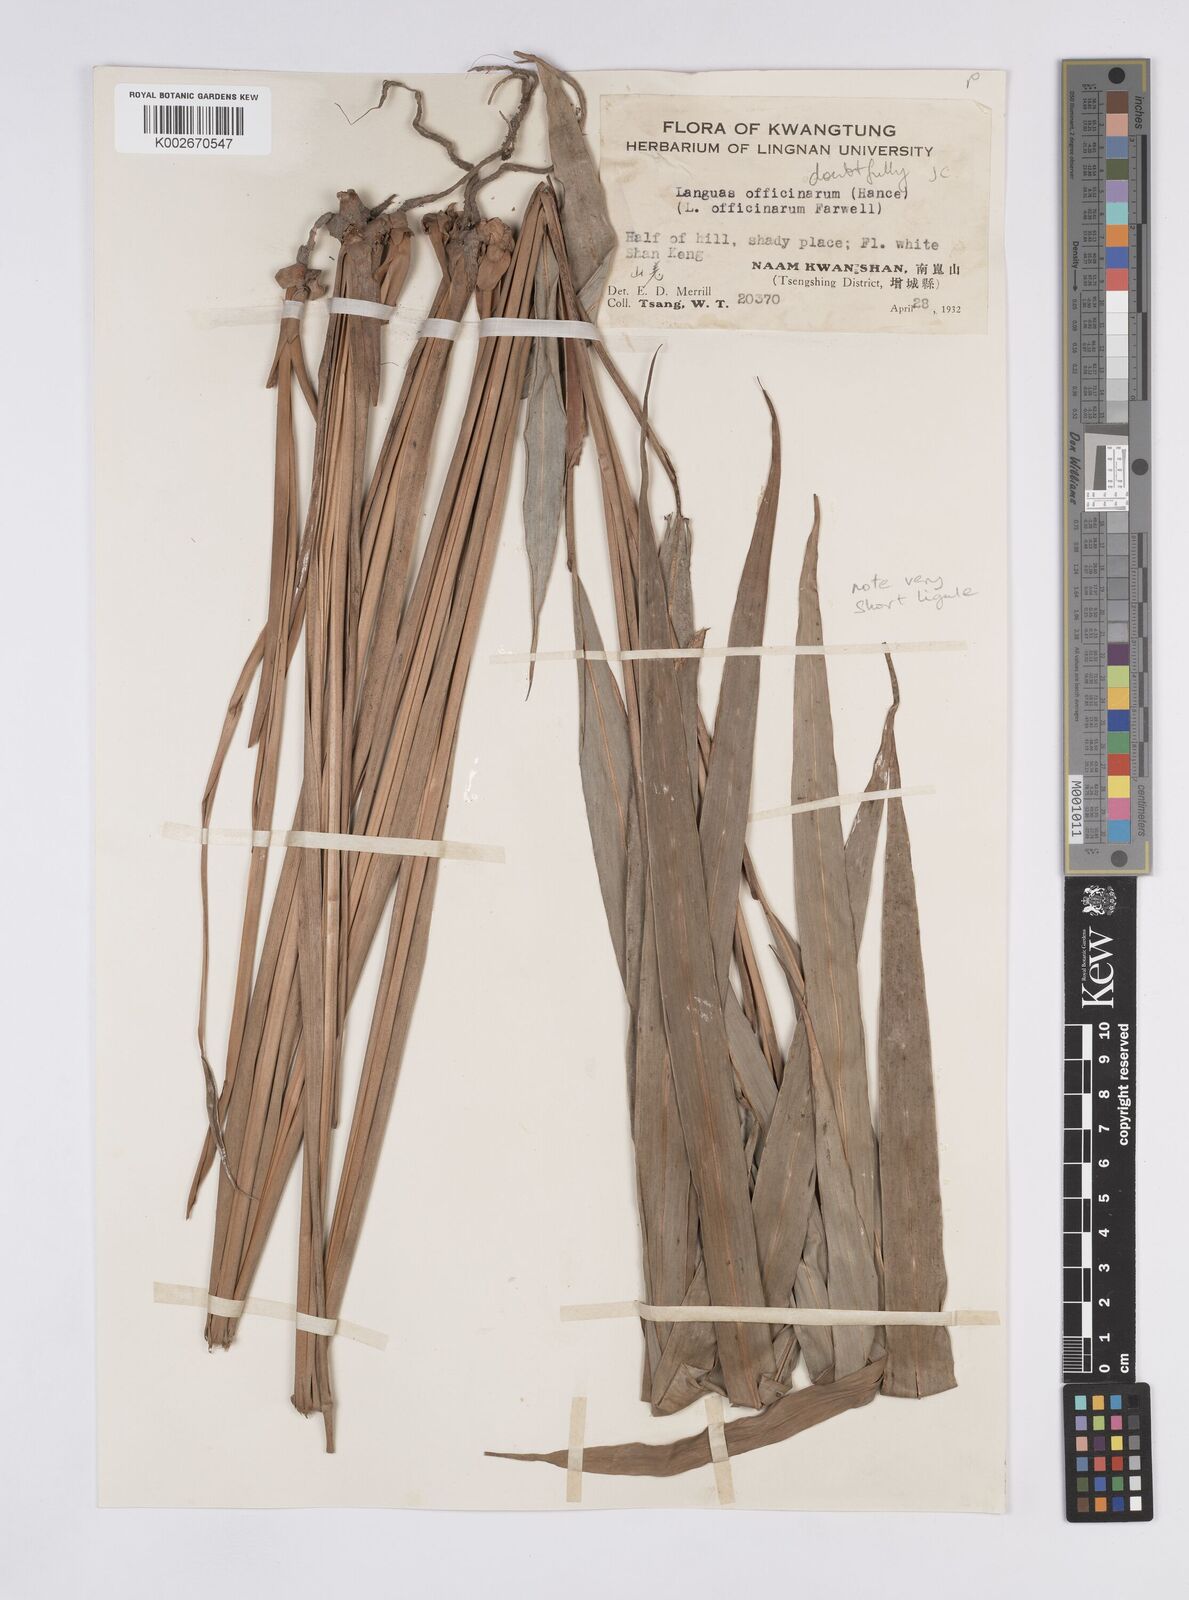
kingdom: Plantae
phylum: Tracheophyta
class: Liliopsida
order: Zingiberales
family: Zingiberaceae
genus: Alpinia
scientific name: Alpinia calcarata
